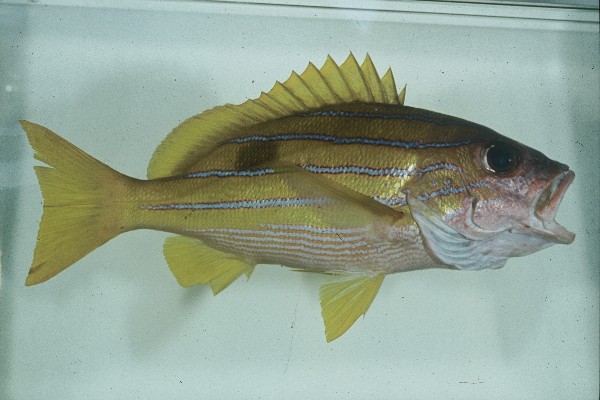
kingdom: Animalia
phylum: Chordata
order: Perciformes
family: Lutjanidae
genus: Lutjanus
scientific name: Lutjanus kasmira
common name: Common bluestripe snapper
